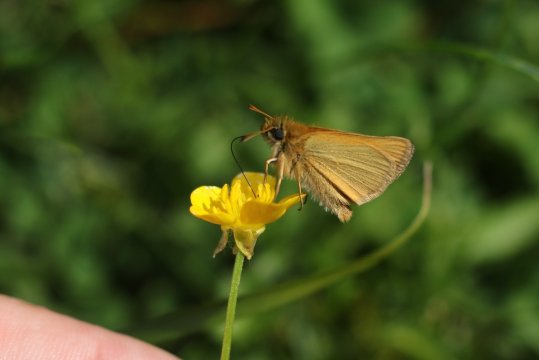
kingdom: Animalia
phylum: Arthropoda
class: Insecta
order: Lepidoptera
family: Hesperiidae
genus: Thymelicus
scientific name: Thymelicus lineola
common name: European Skipper
